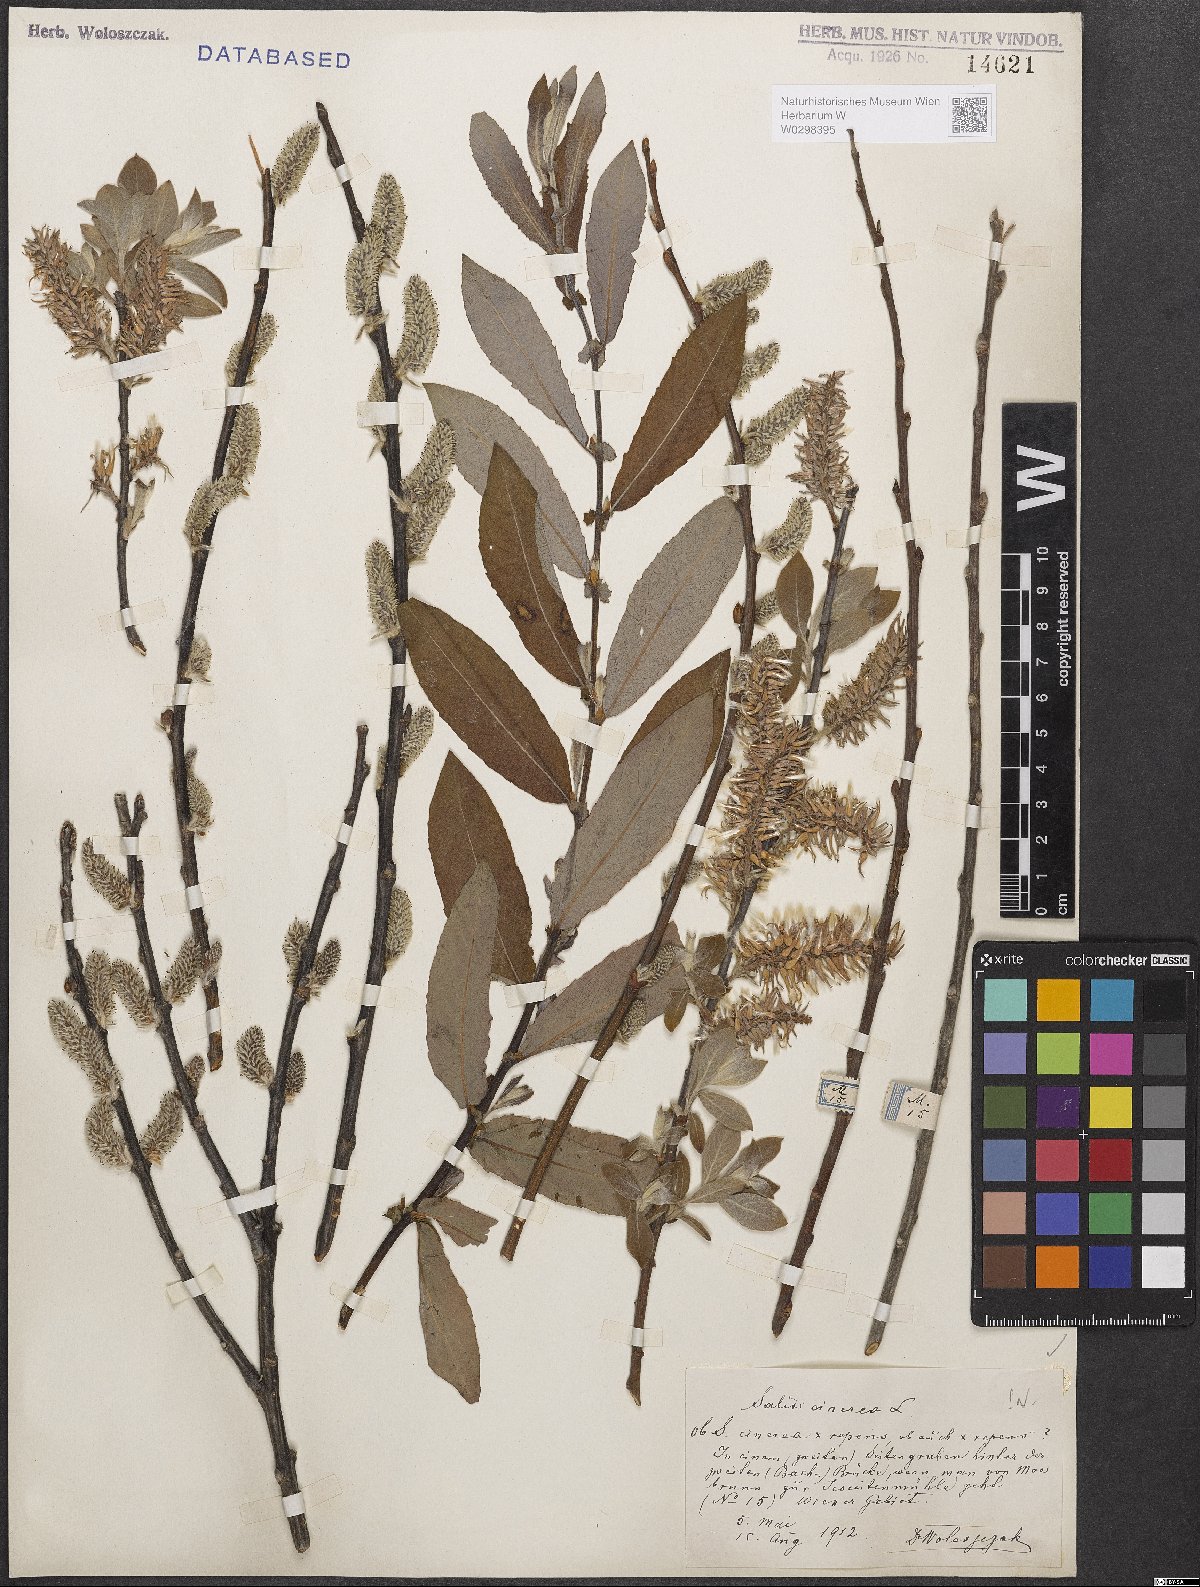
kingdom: Plantae
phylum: Tracheophyta
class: Magnoliopsida
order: Malpighiales
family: Salicaceae
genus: Salix
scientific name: Salix cinerea
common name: Common sallow
